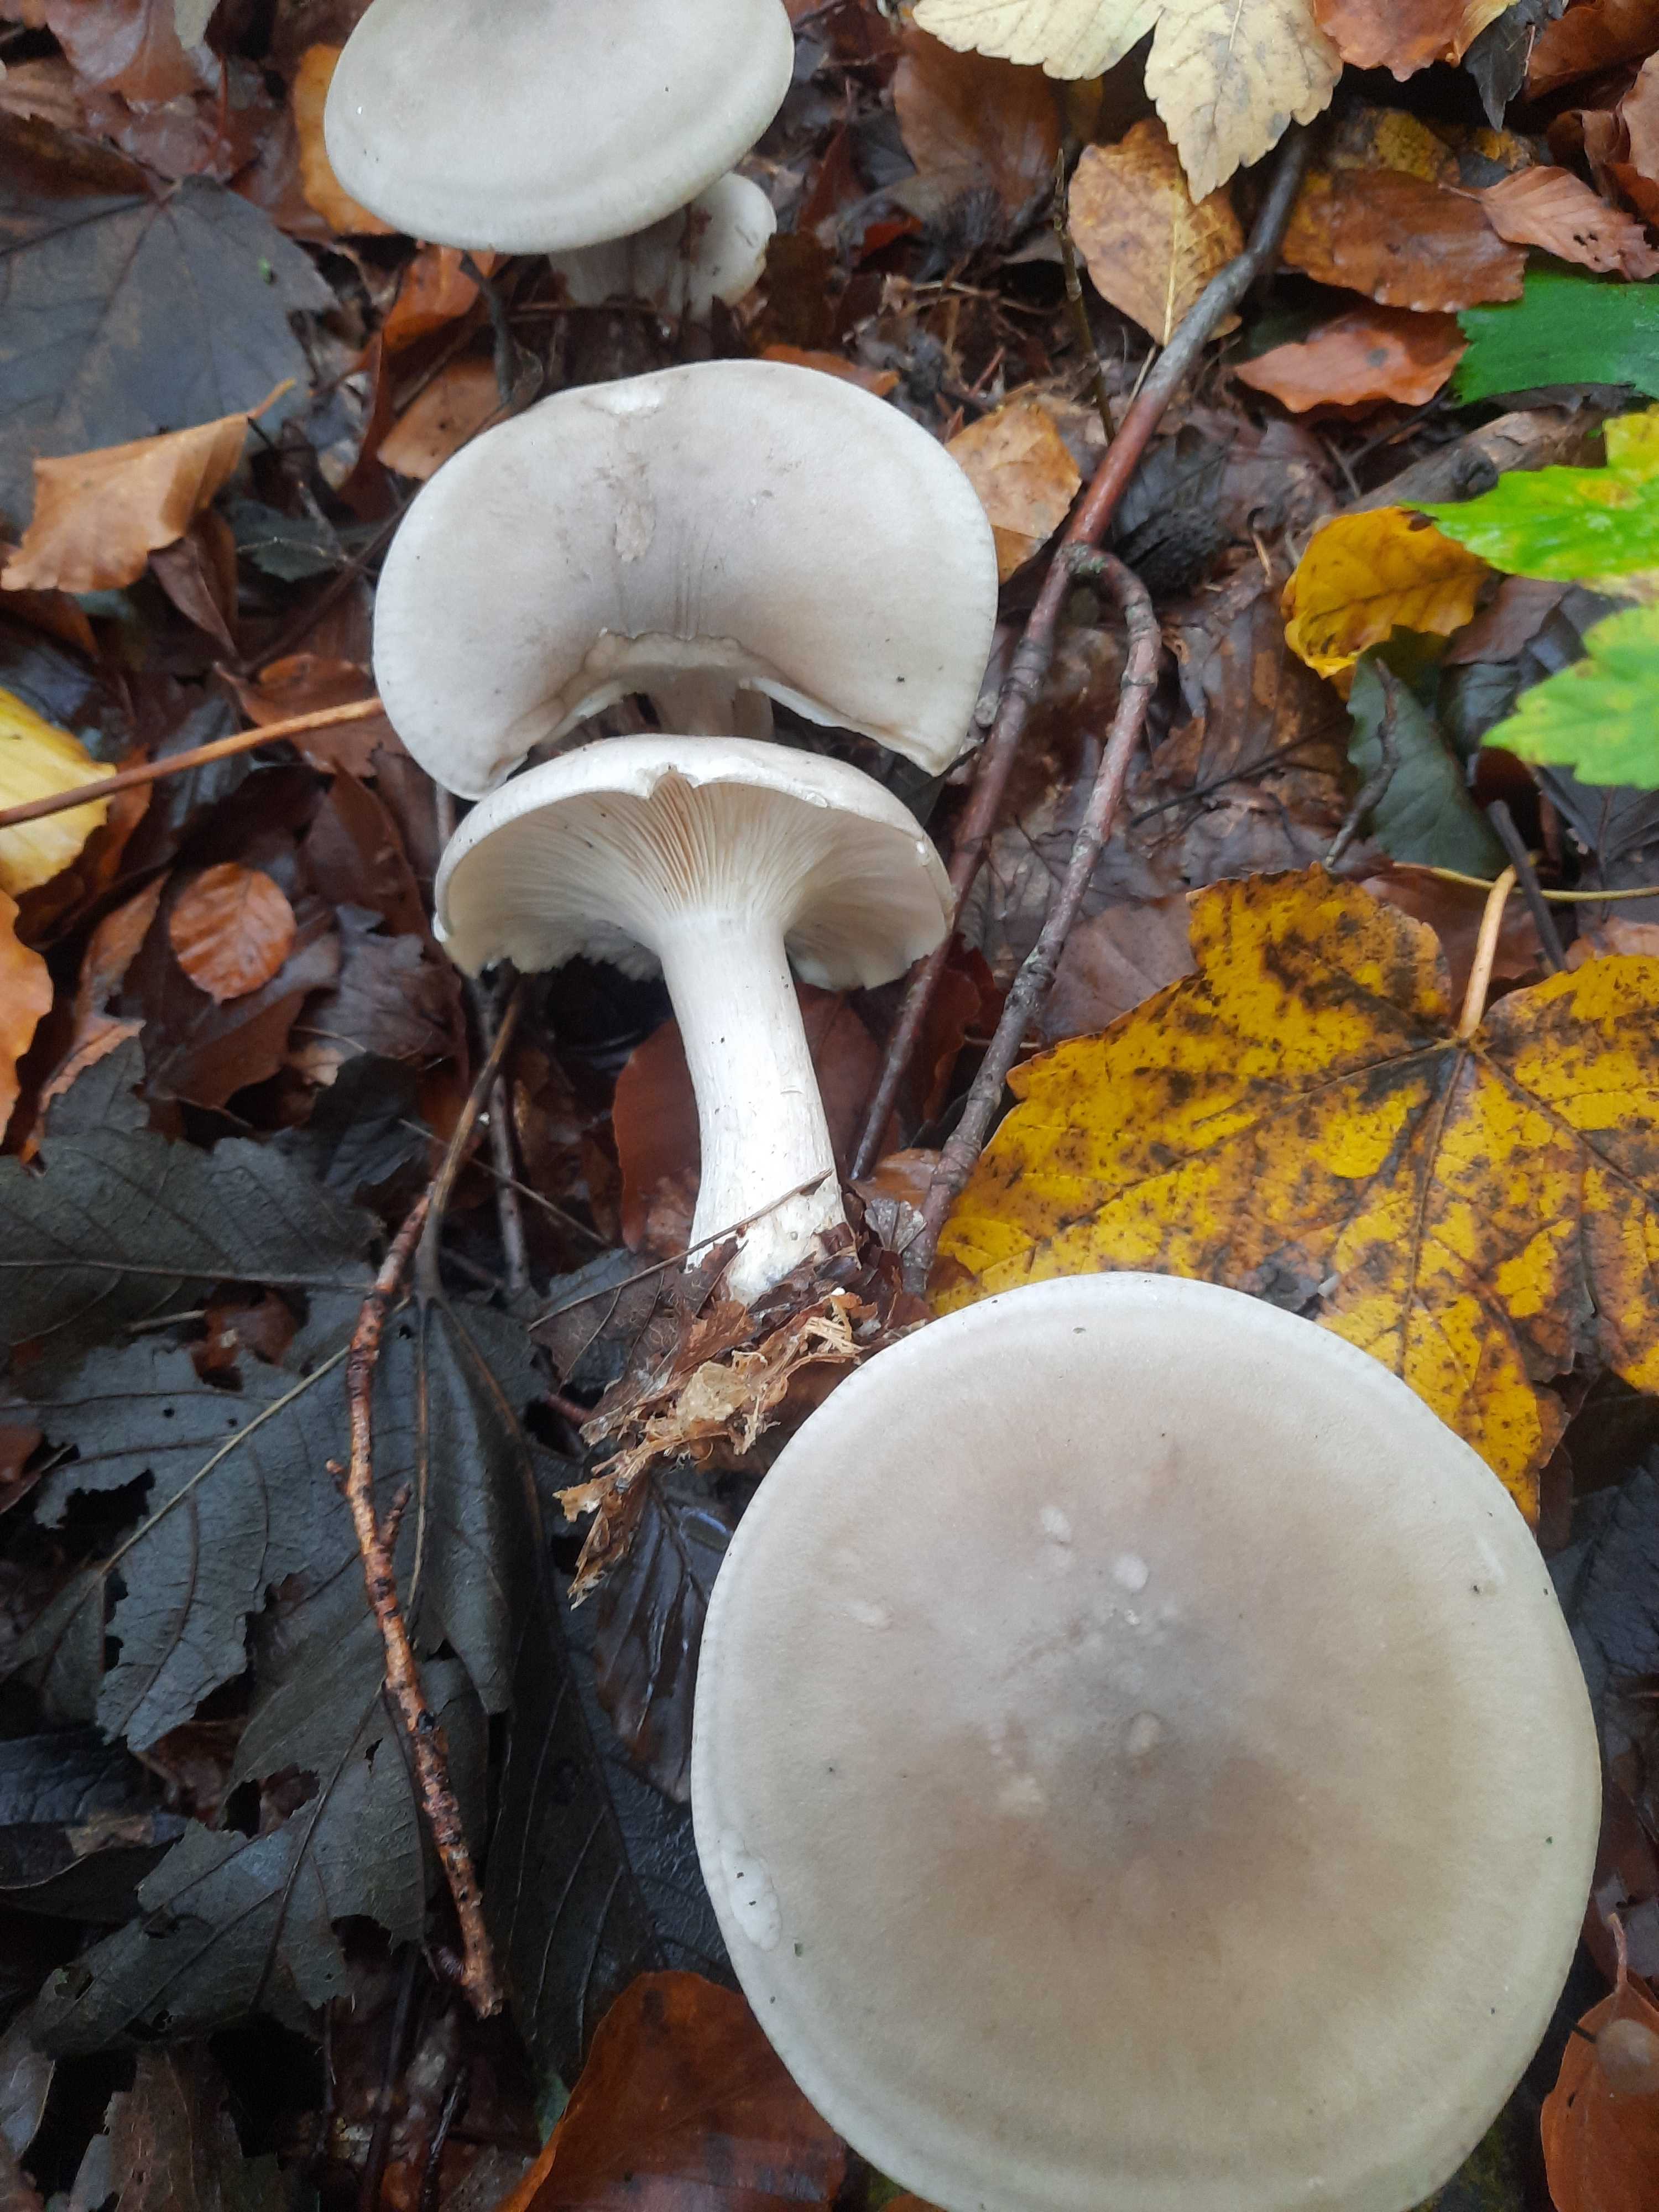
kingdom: Fungi
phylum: Basidiomycota
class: Agaricomycetes
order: Agaricales
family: Tricholomataceae
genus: Clitocybe
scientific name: Clitocybe nebularis
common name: tåge-tragthat
